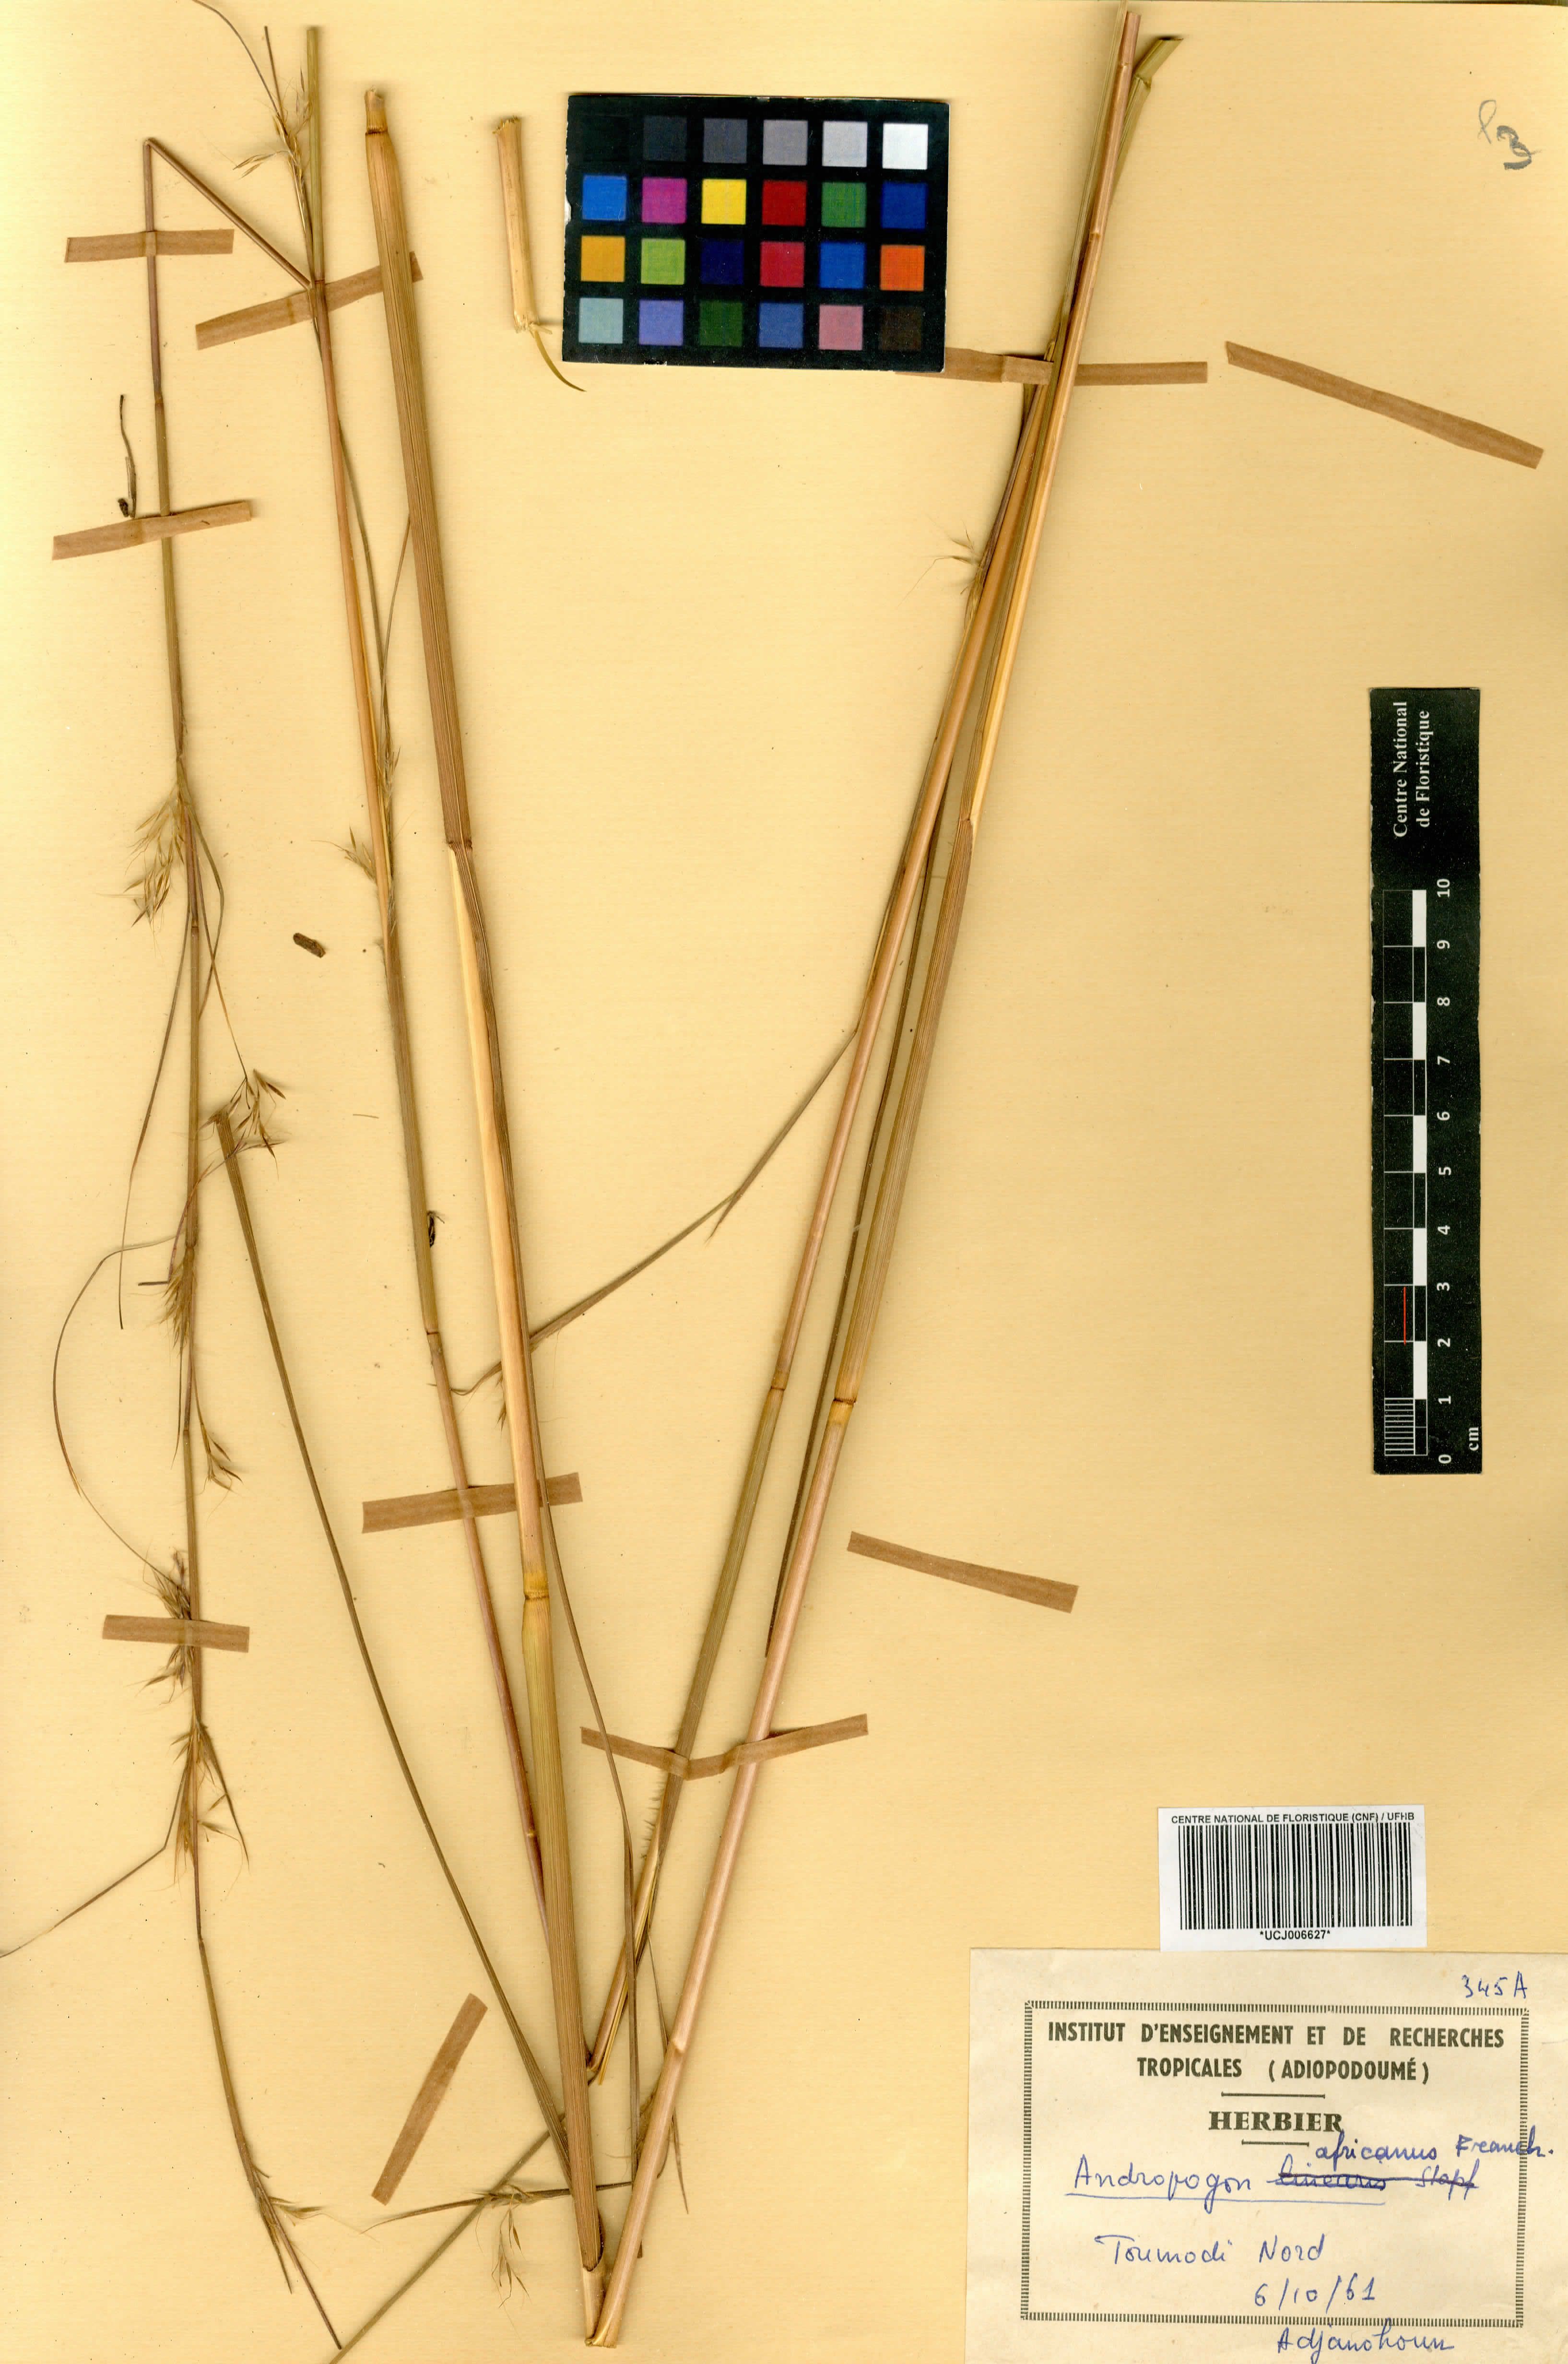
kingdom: Plantae
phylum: Tracheophyta
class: Liliopsida
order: Poales
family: Poaceae
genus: Andropogon
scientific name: Andropogon africanus
